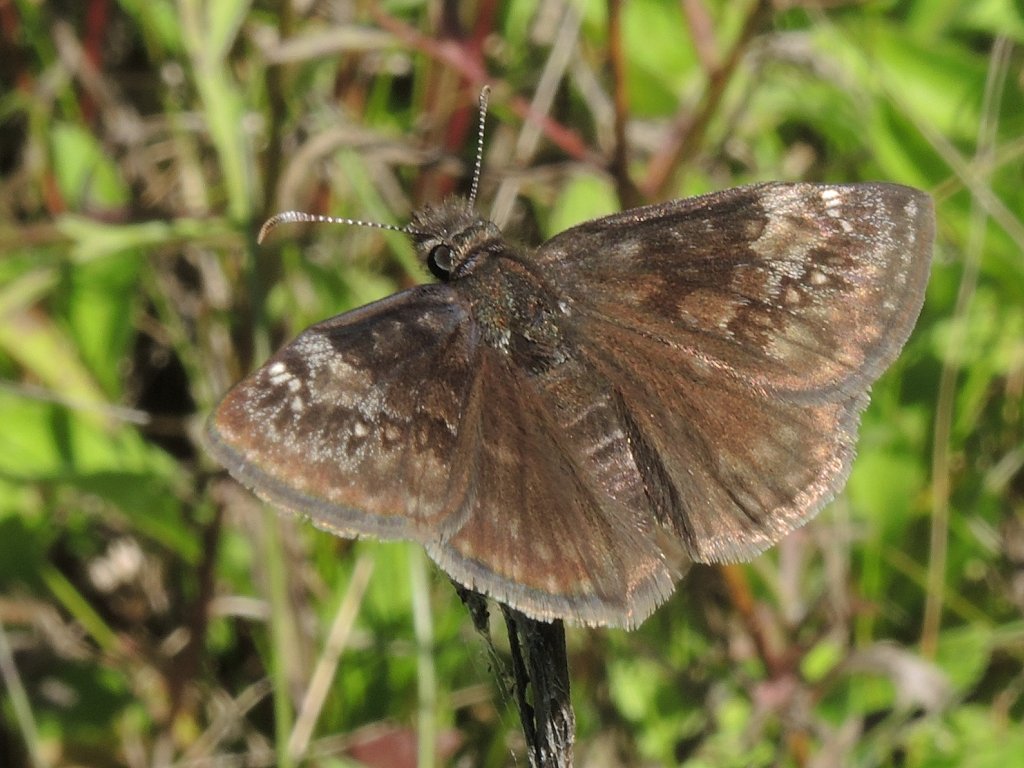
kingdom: Animalia
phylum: Arthropoda
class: Insecta
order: Lepidoptera
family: Hesperiidae
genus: Gesta
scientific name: Gesta
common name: Wild Indigo Duskywing
